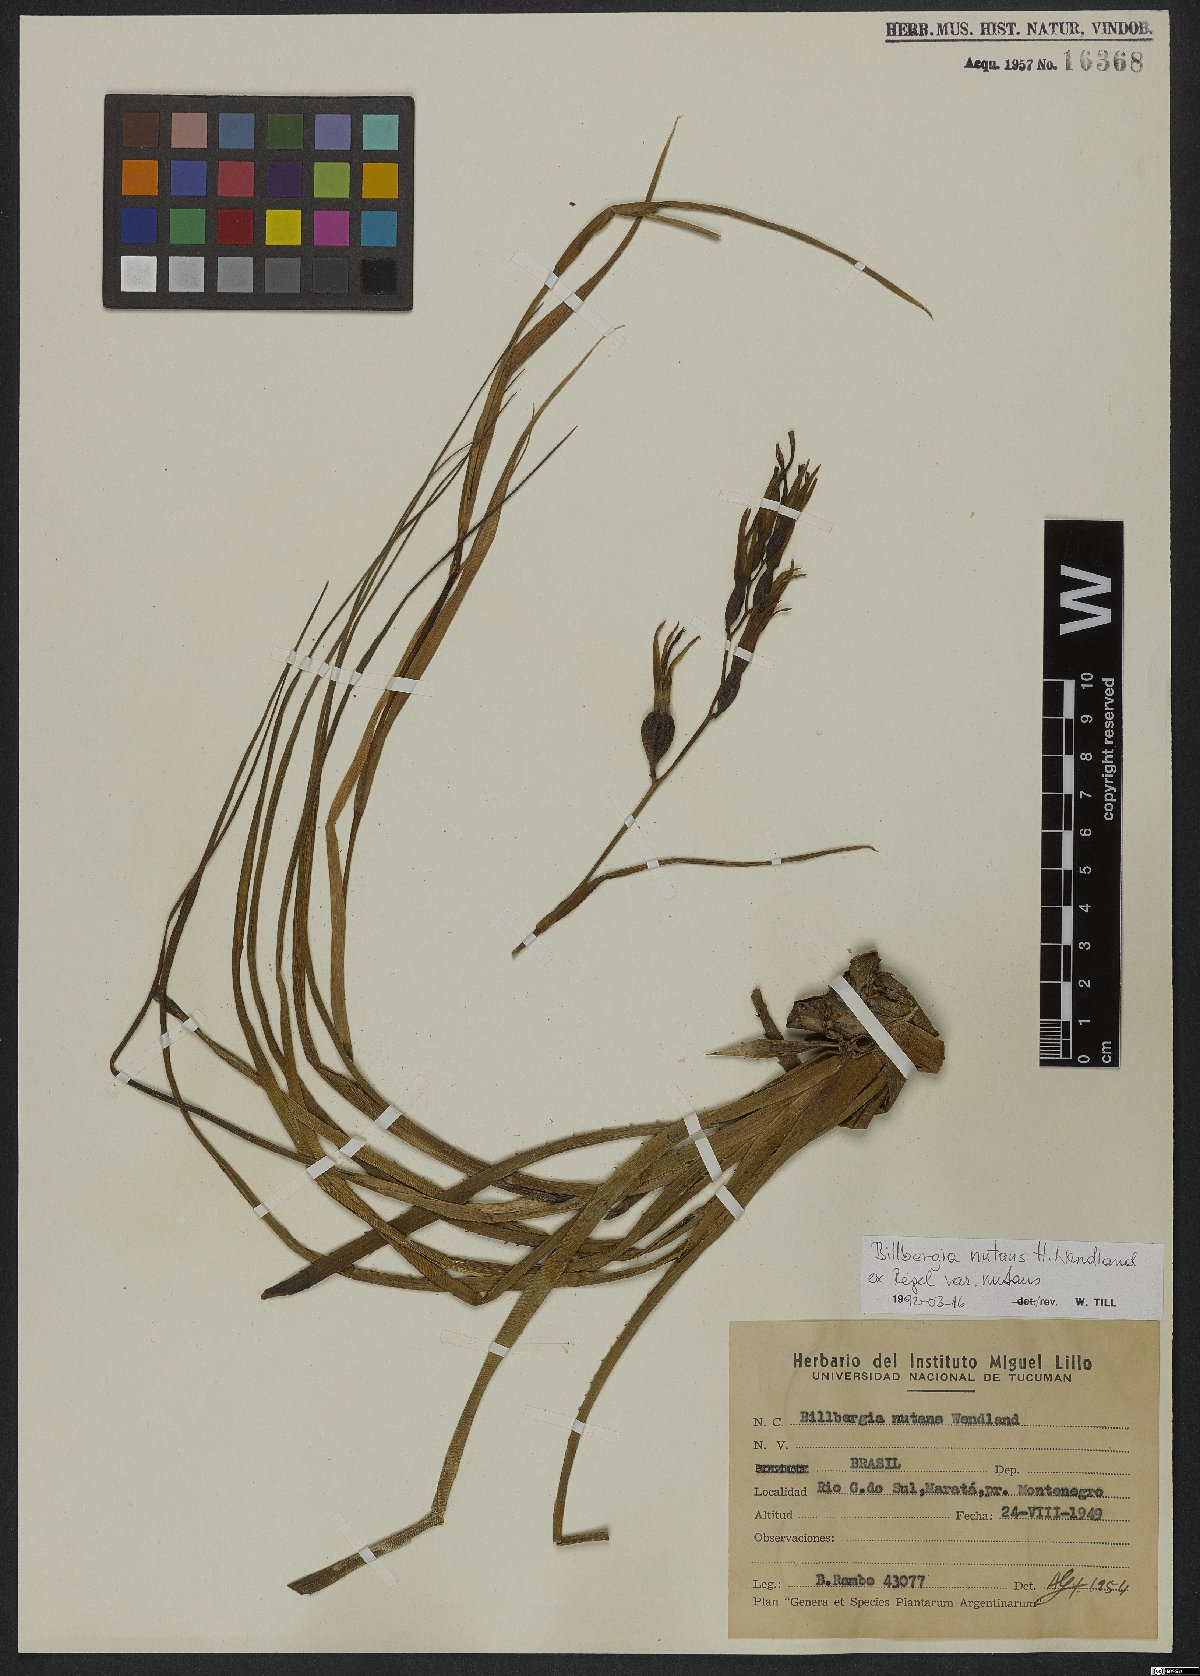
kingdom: Plantae
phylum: Tracheophyta
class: Liliopsida
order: Poales
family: Bromeliaceae
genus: Billbergia
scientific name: Billbergia nutans
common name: Friendship-plant
